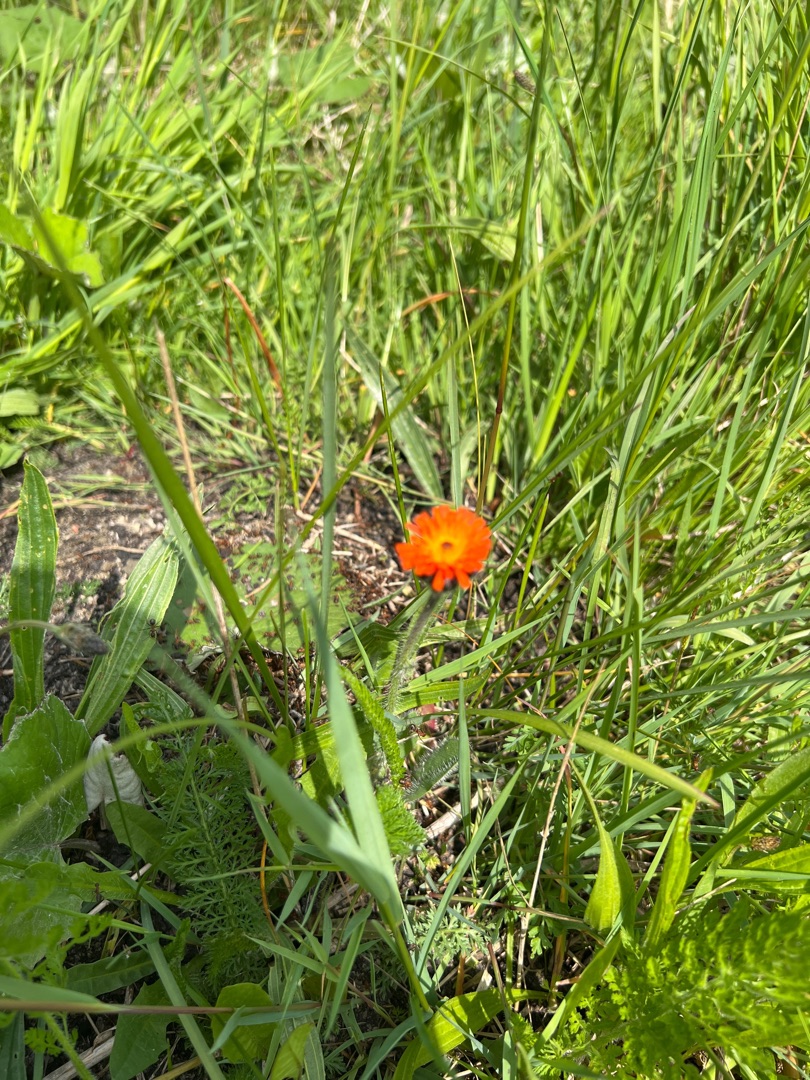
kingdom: Plantae
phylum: Tracheophyta
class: Magnoliopsida
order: Asterales
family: Asteraceae
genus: Pilosella
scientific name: Pilosella aurantiaca
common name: Pomerans-høgeurt
